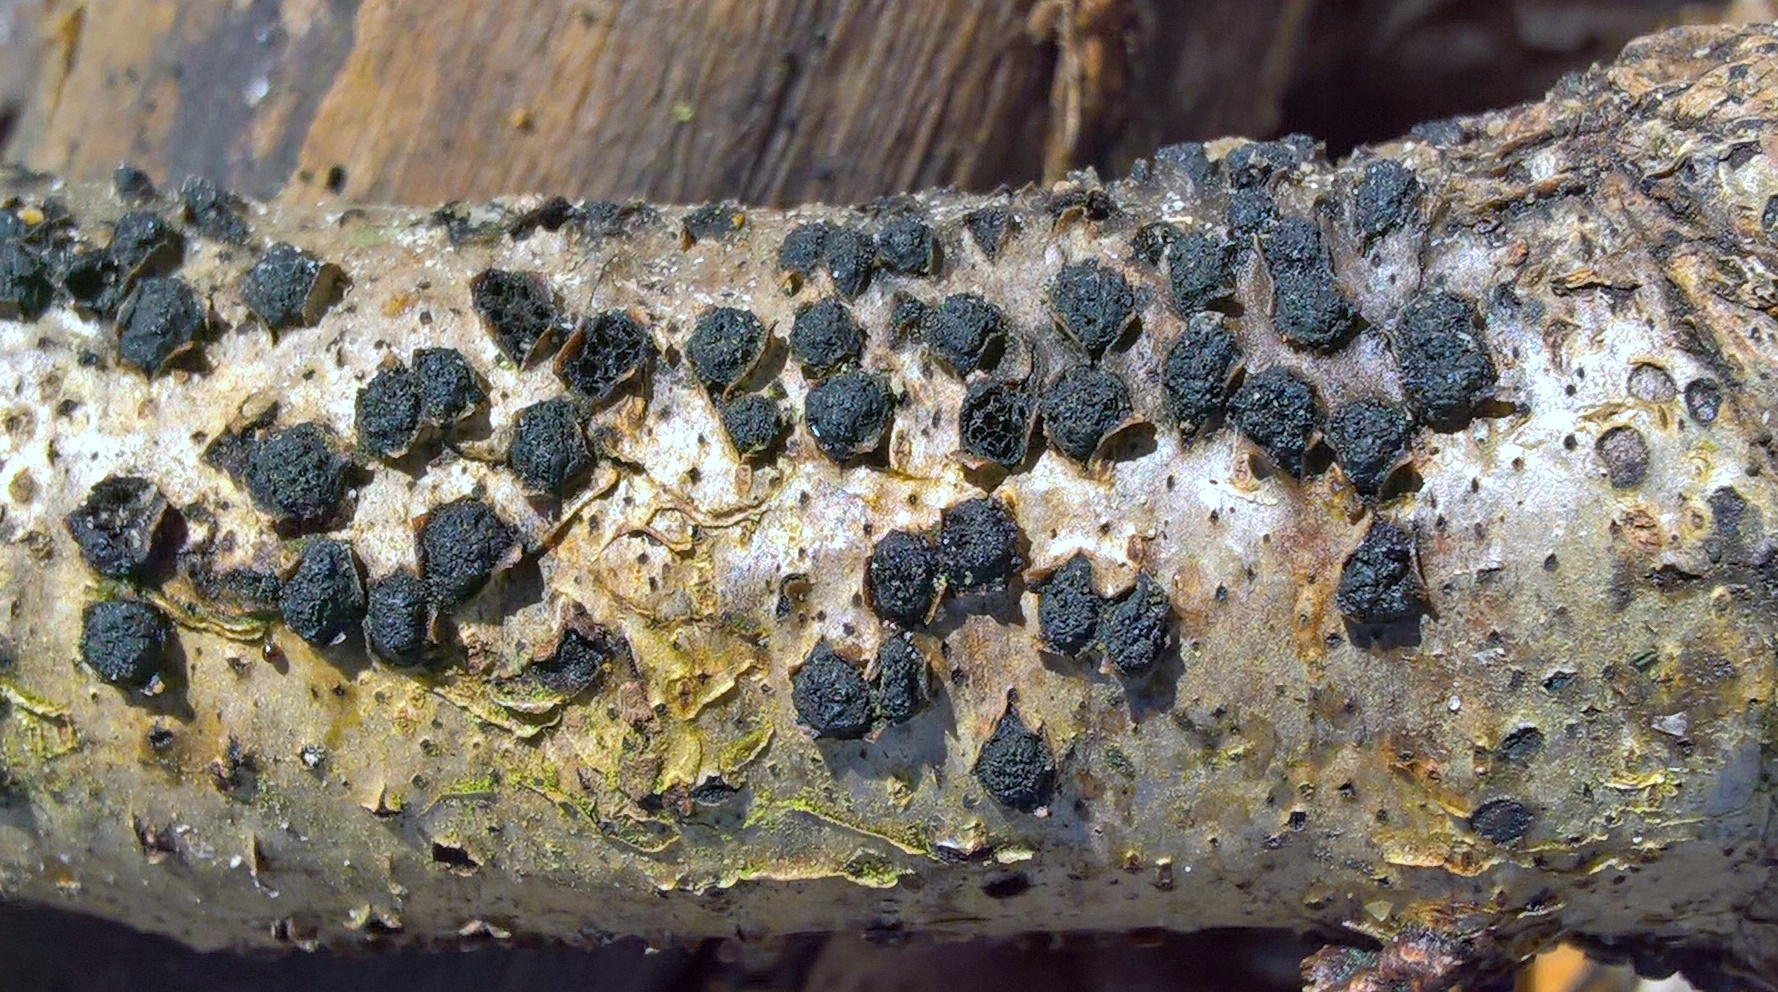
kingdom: Fungi
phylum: Ascomycota
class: Sordariomycetes
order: Xylariales
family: Diatrypaceae
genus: Diatrypella
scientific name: Diatrypella quercina
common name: ege-kulskorpe
